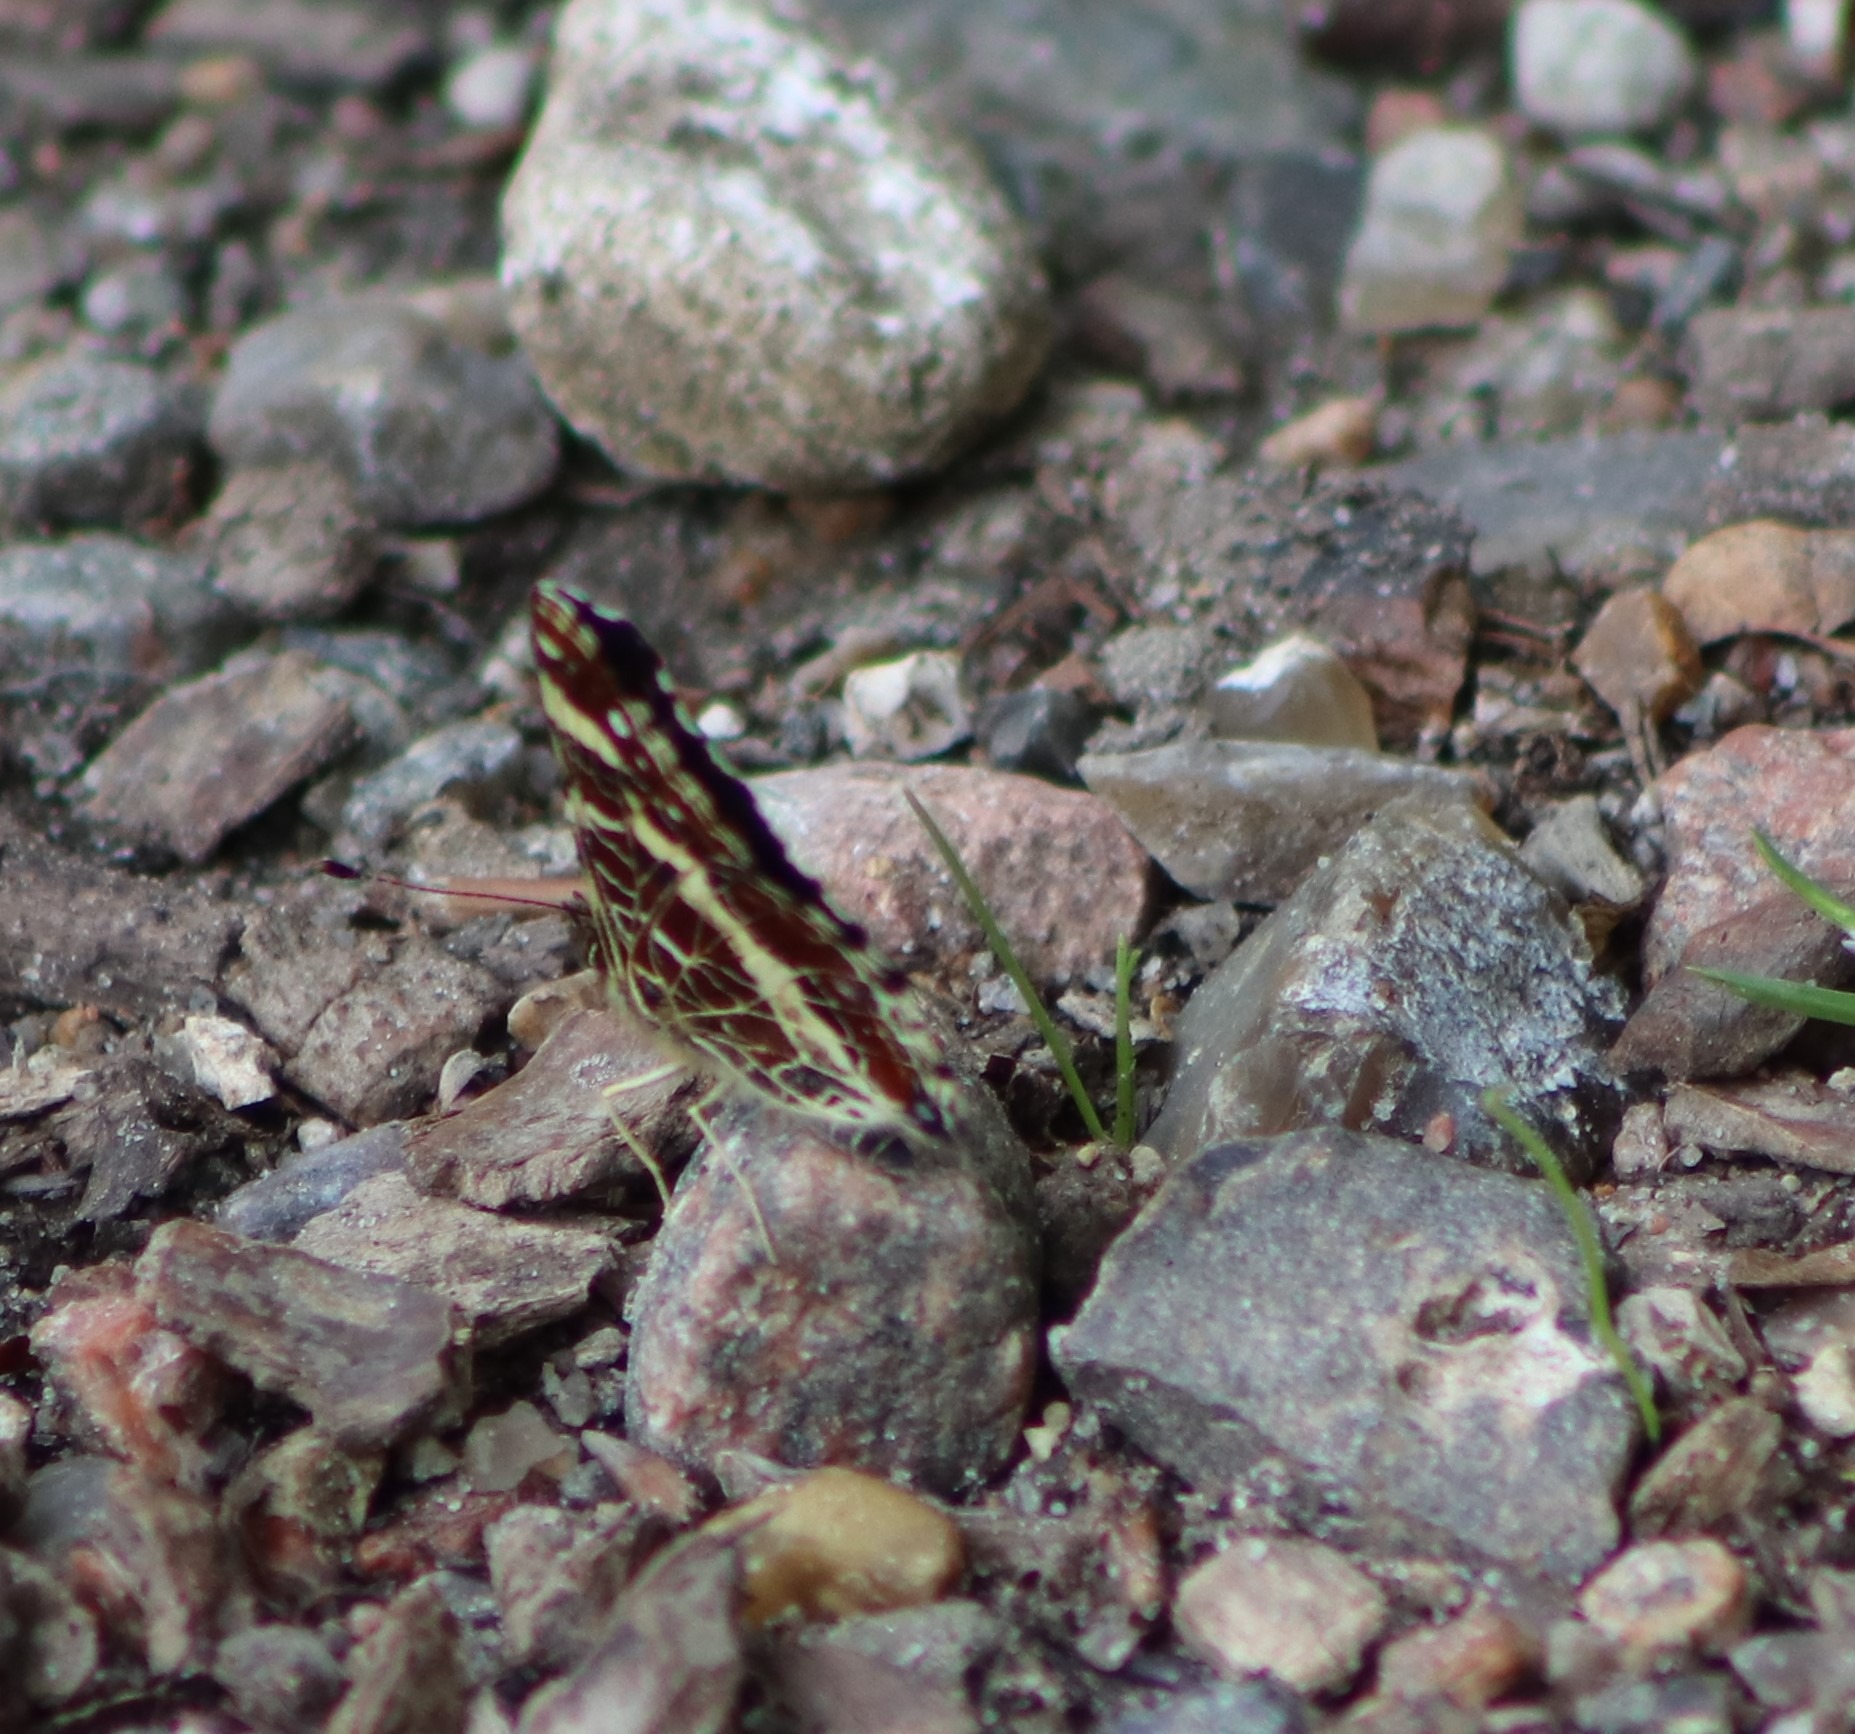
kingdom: Animalia
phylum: Arthropoda
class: Insecta
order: Lepidoptera
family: Nymphalidae
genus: Araschnia
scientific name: Araschnia levana
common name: Nældesommerfugl
